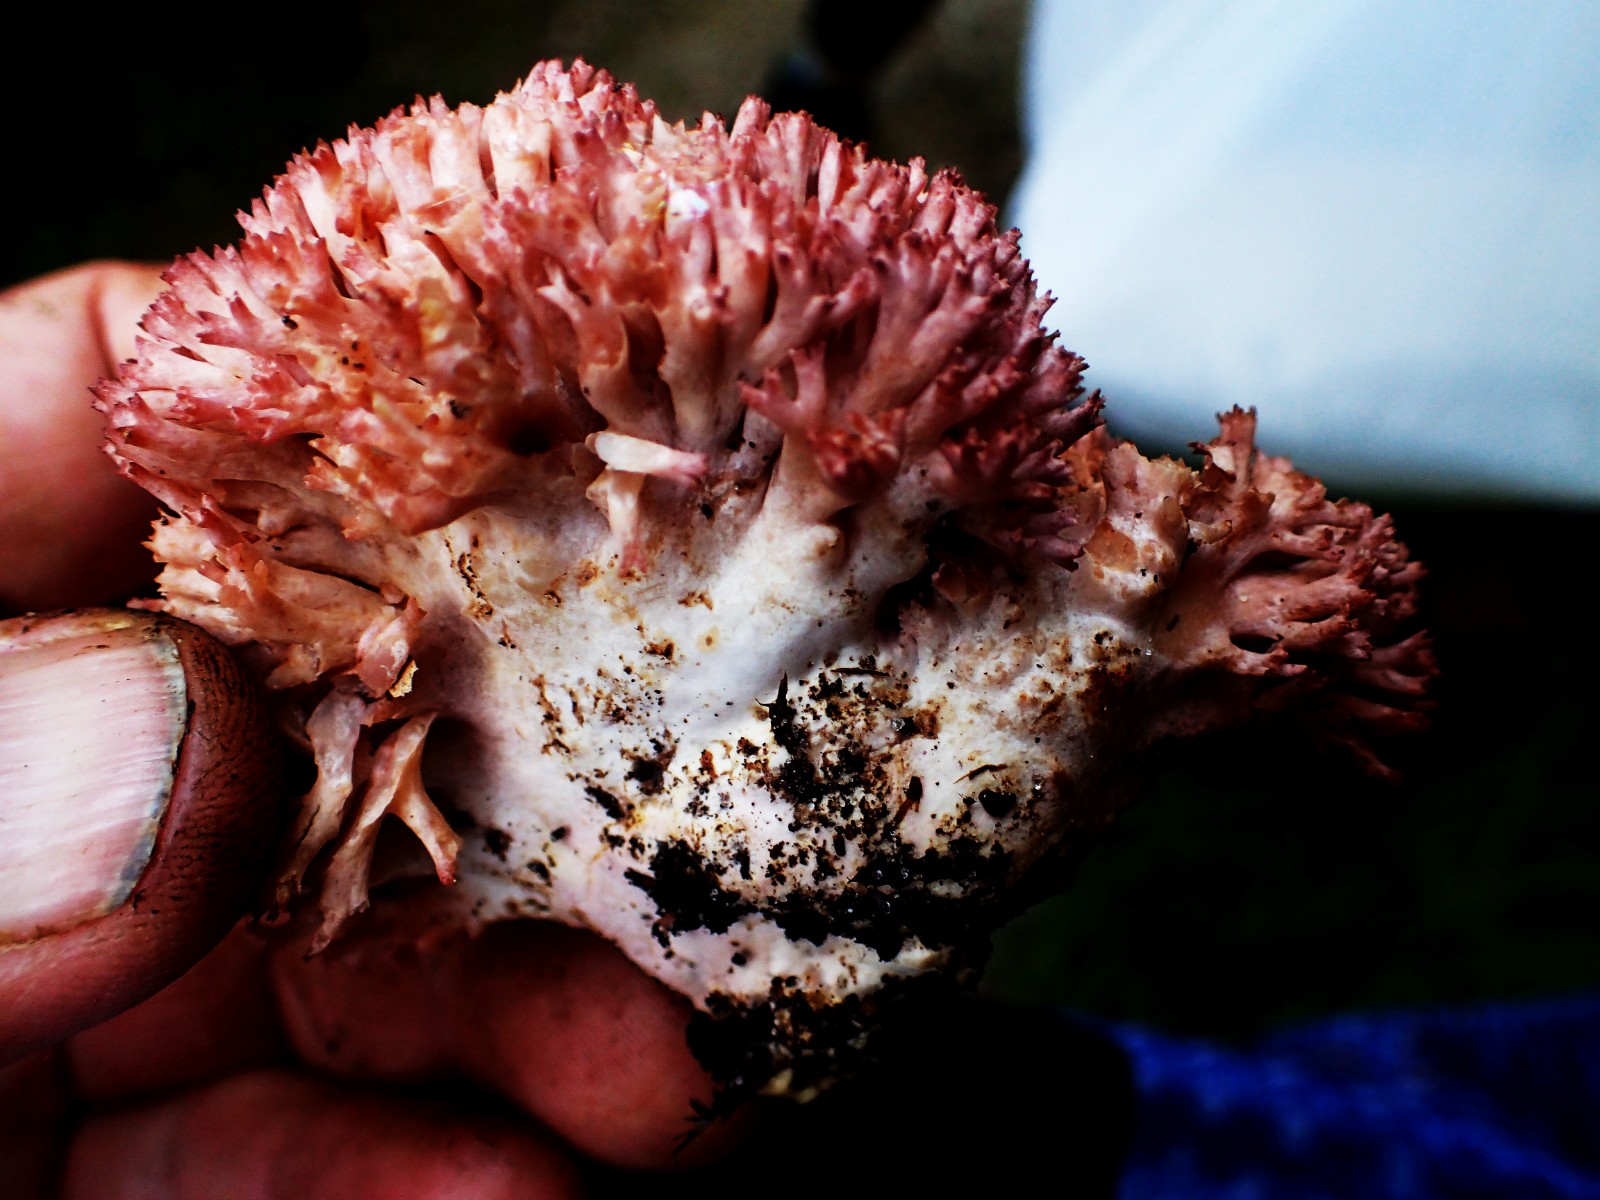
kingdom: Fungi
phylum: Basidiomycota
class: Agaricomycetes
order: Gomphales
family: Gomphaceae
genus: Ramaria
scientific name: Ramaria botrytis
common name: drue-koralsvamp
